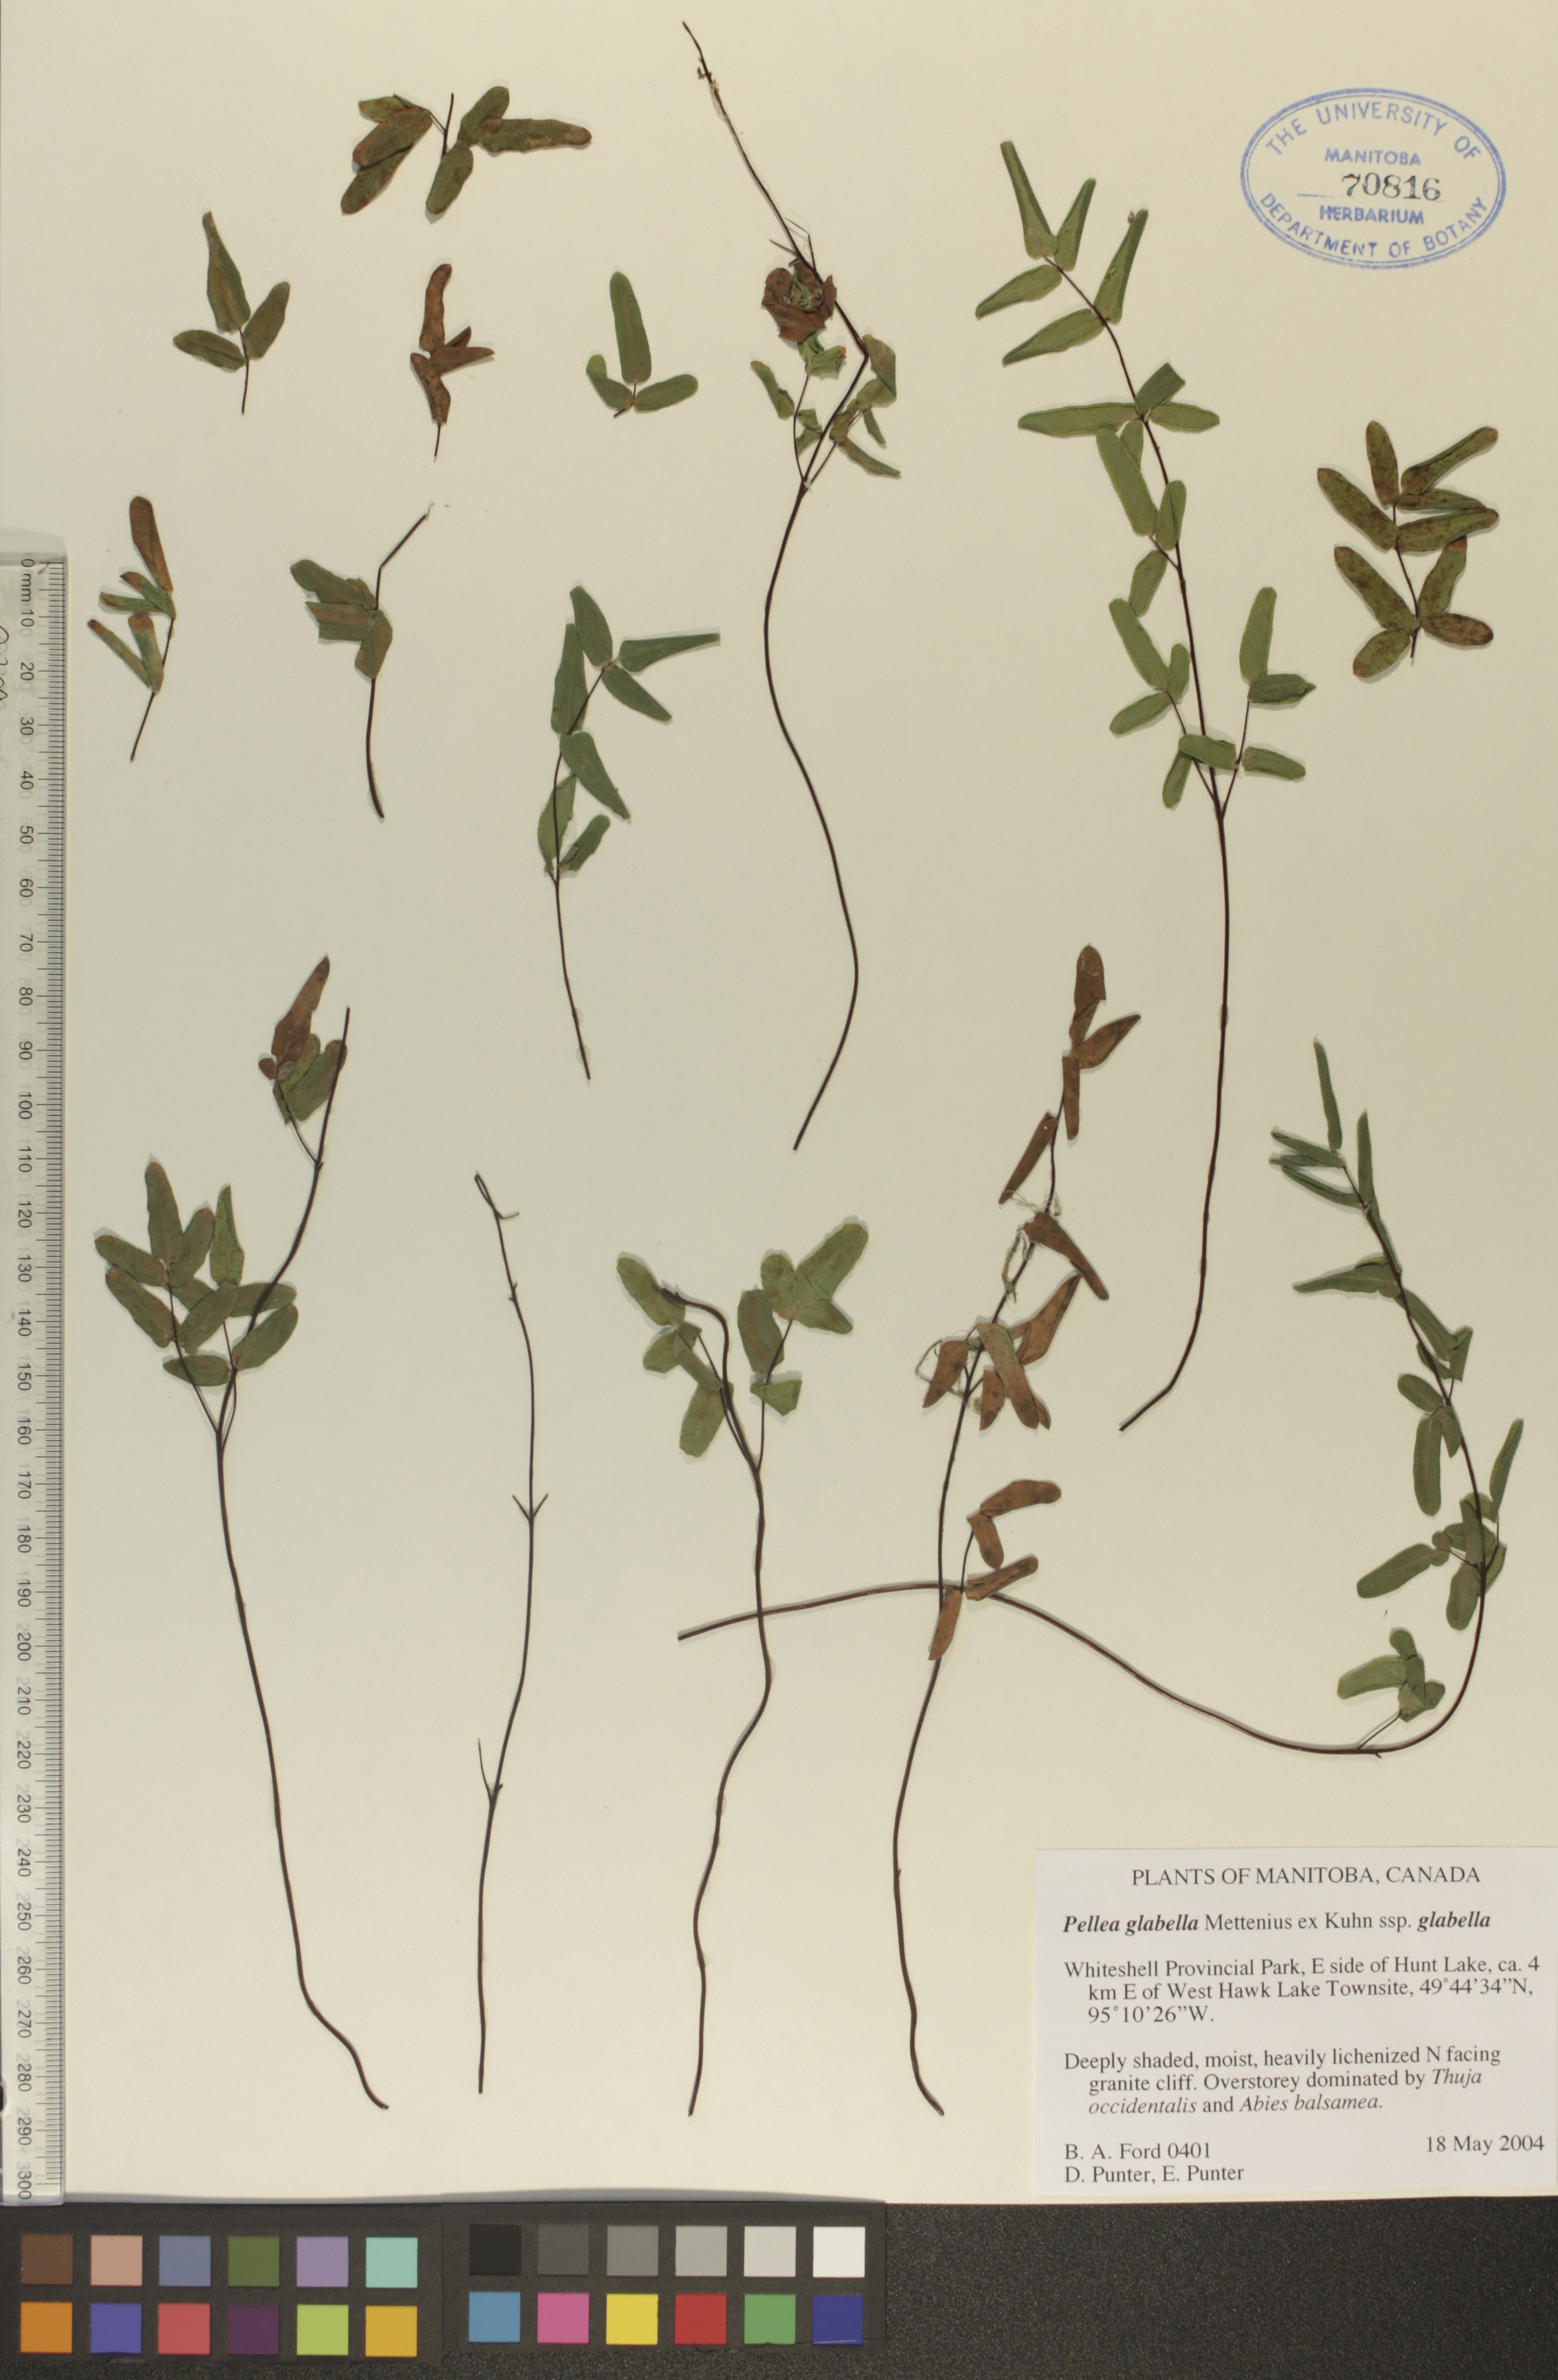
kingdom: Plantae
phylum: Tracheophyta
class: Polypodiopsida
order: Polypodiales
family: Pteridaceae
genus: Pellaea
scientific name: Pellaea glabella
